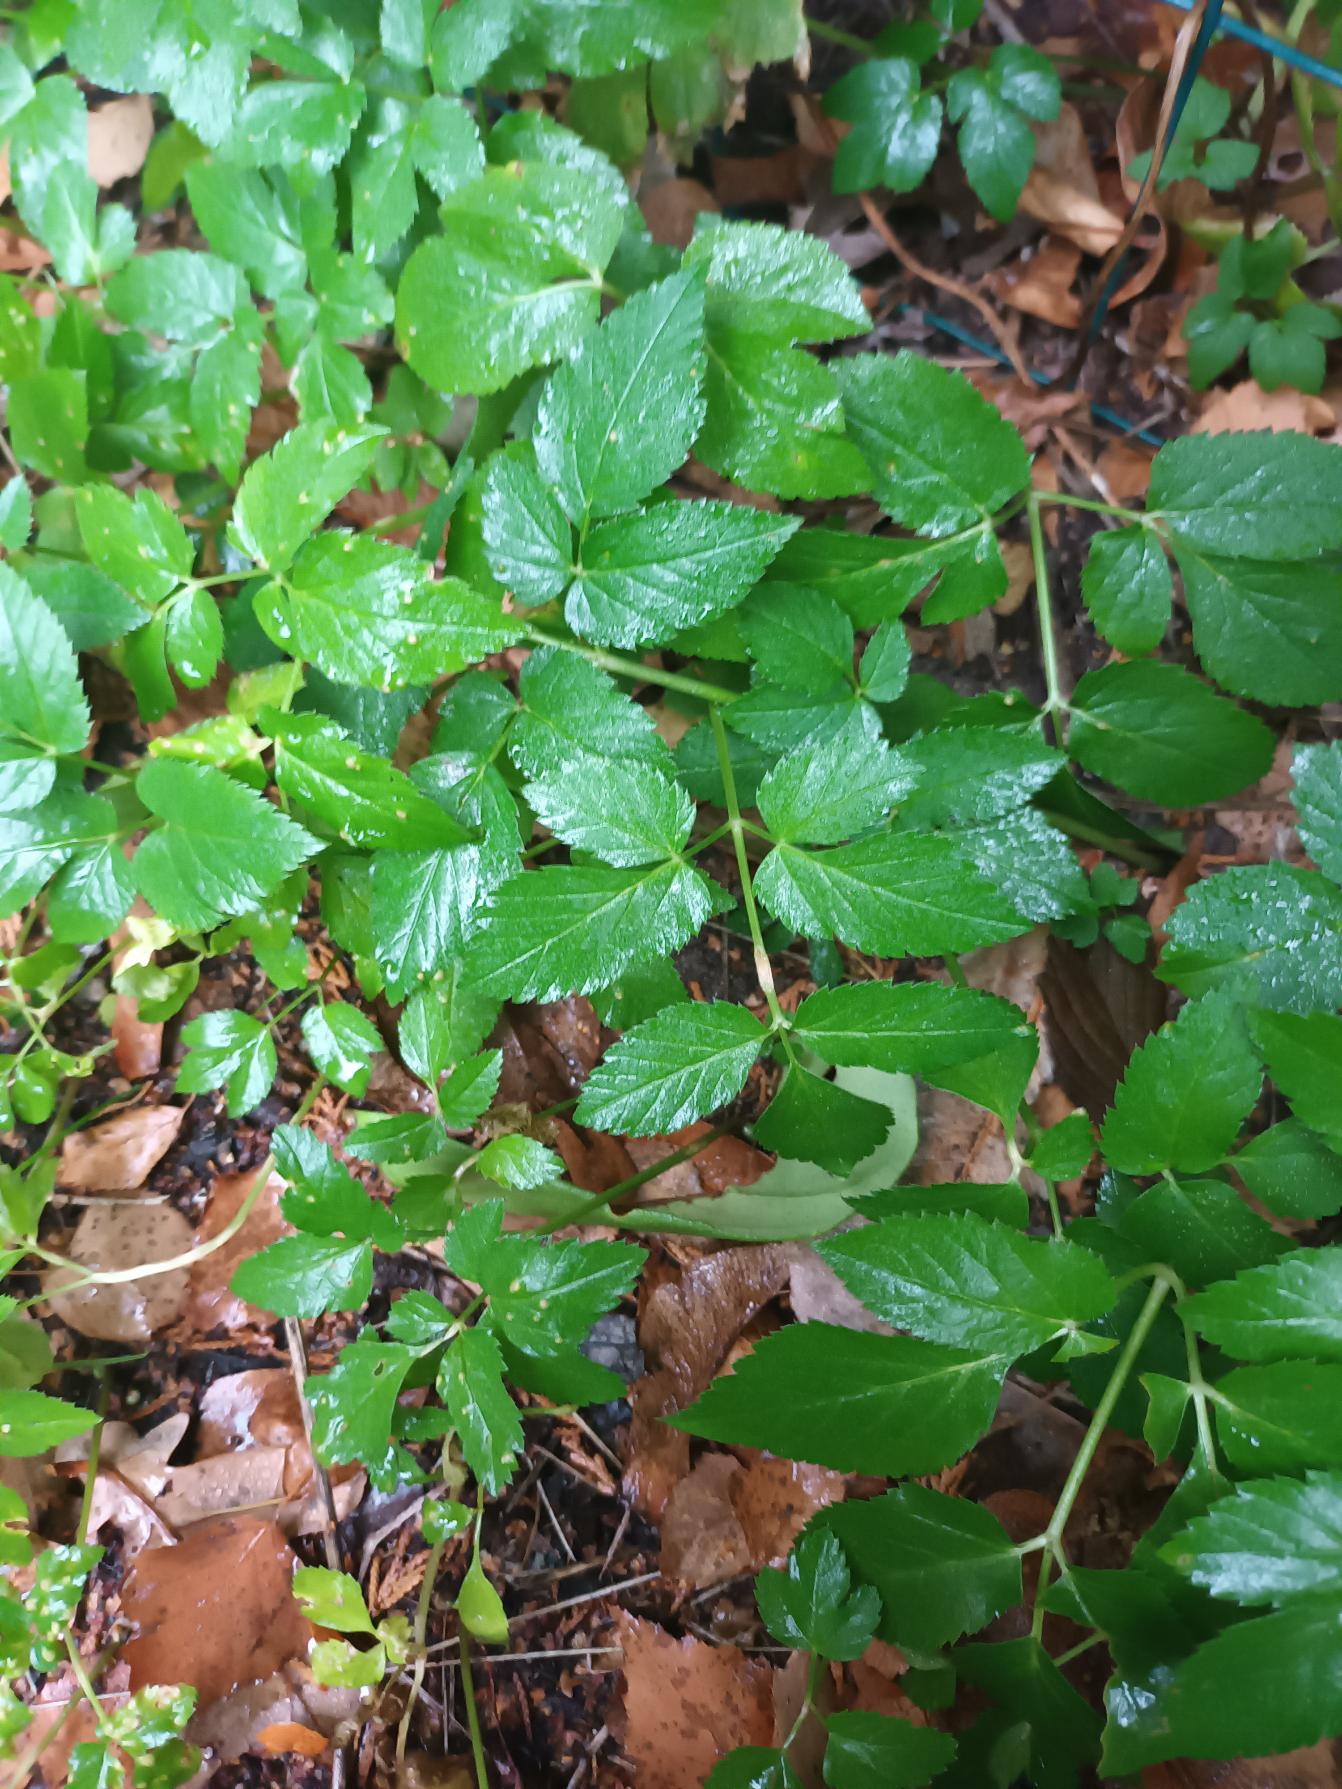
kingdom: Plantae
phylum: Tracheophyta
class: Magnoliopsida
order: Apiales
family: Apiaceae
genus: Aegopodium
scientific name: Aegopodium podagraria
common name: Skvalderkål
